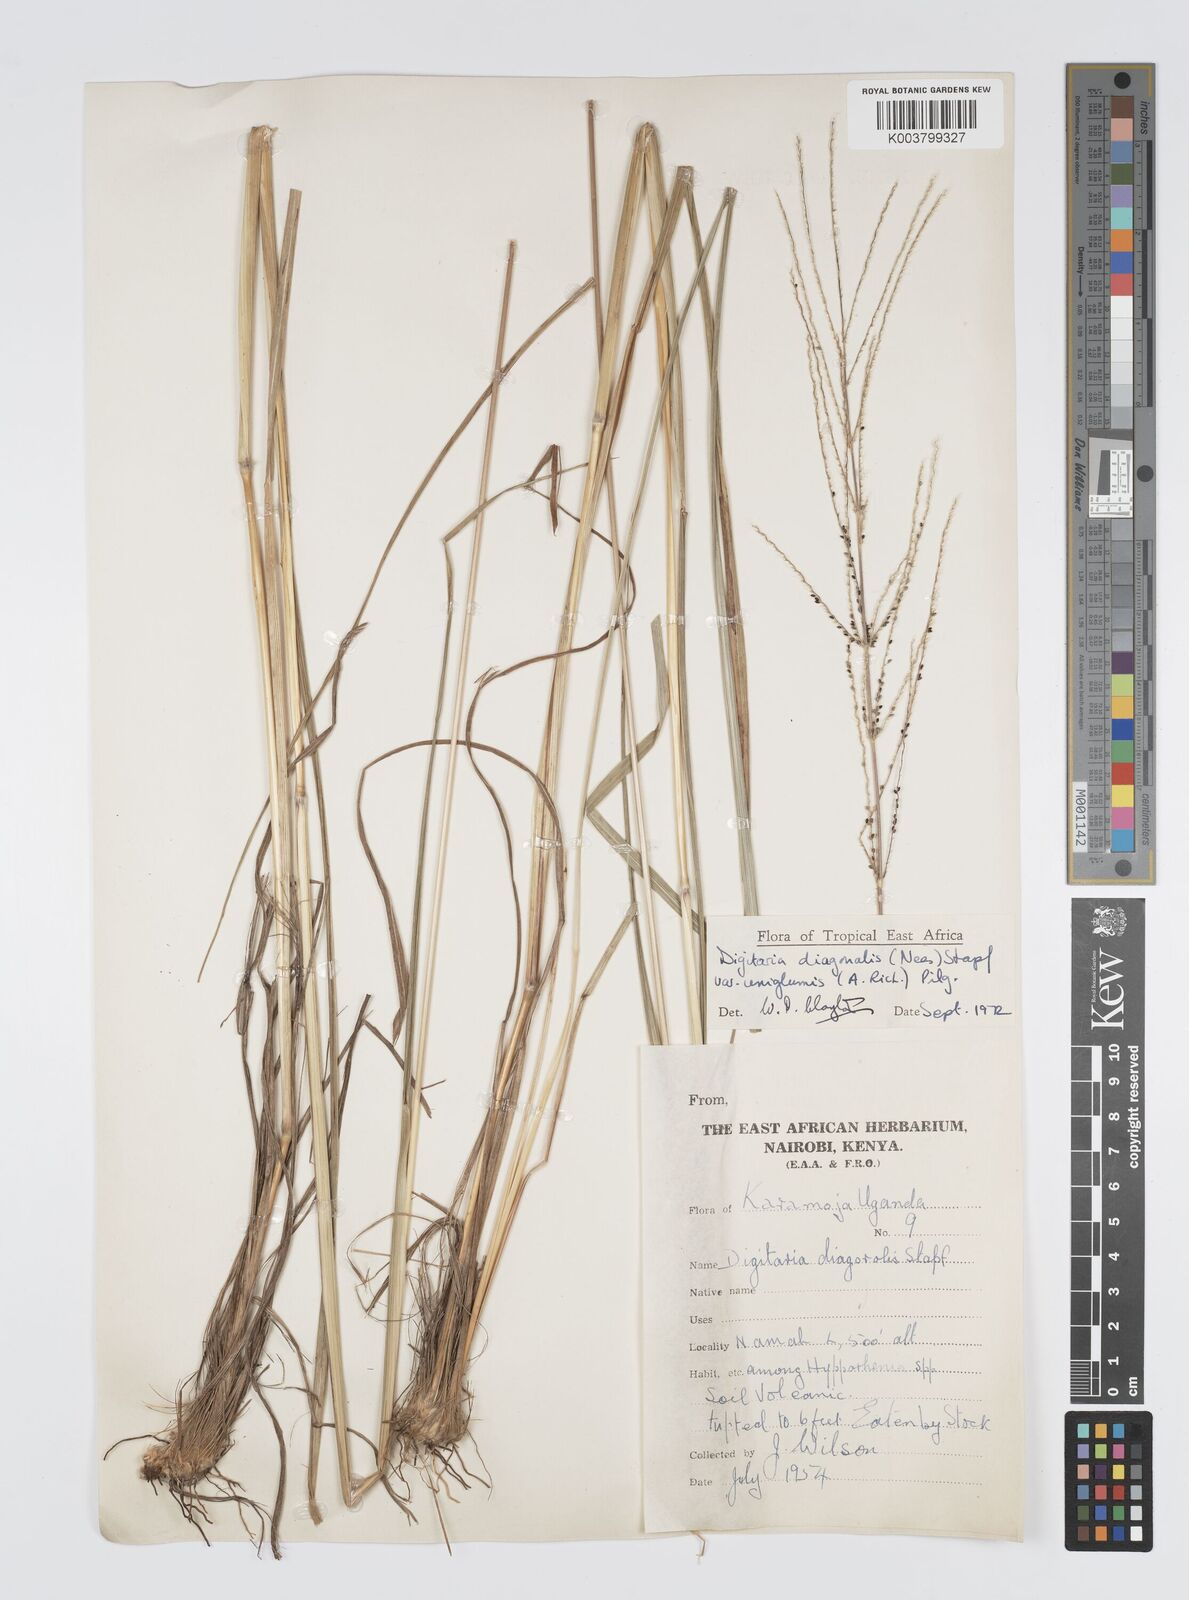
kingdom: Plantae
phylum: Tracheophyta
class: Liliopsida
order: Poales
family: Poaceae
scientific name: Poaceae
